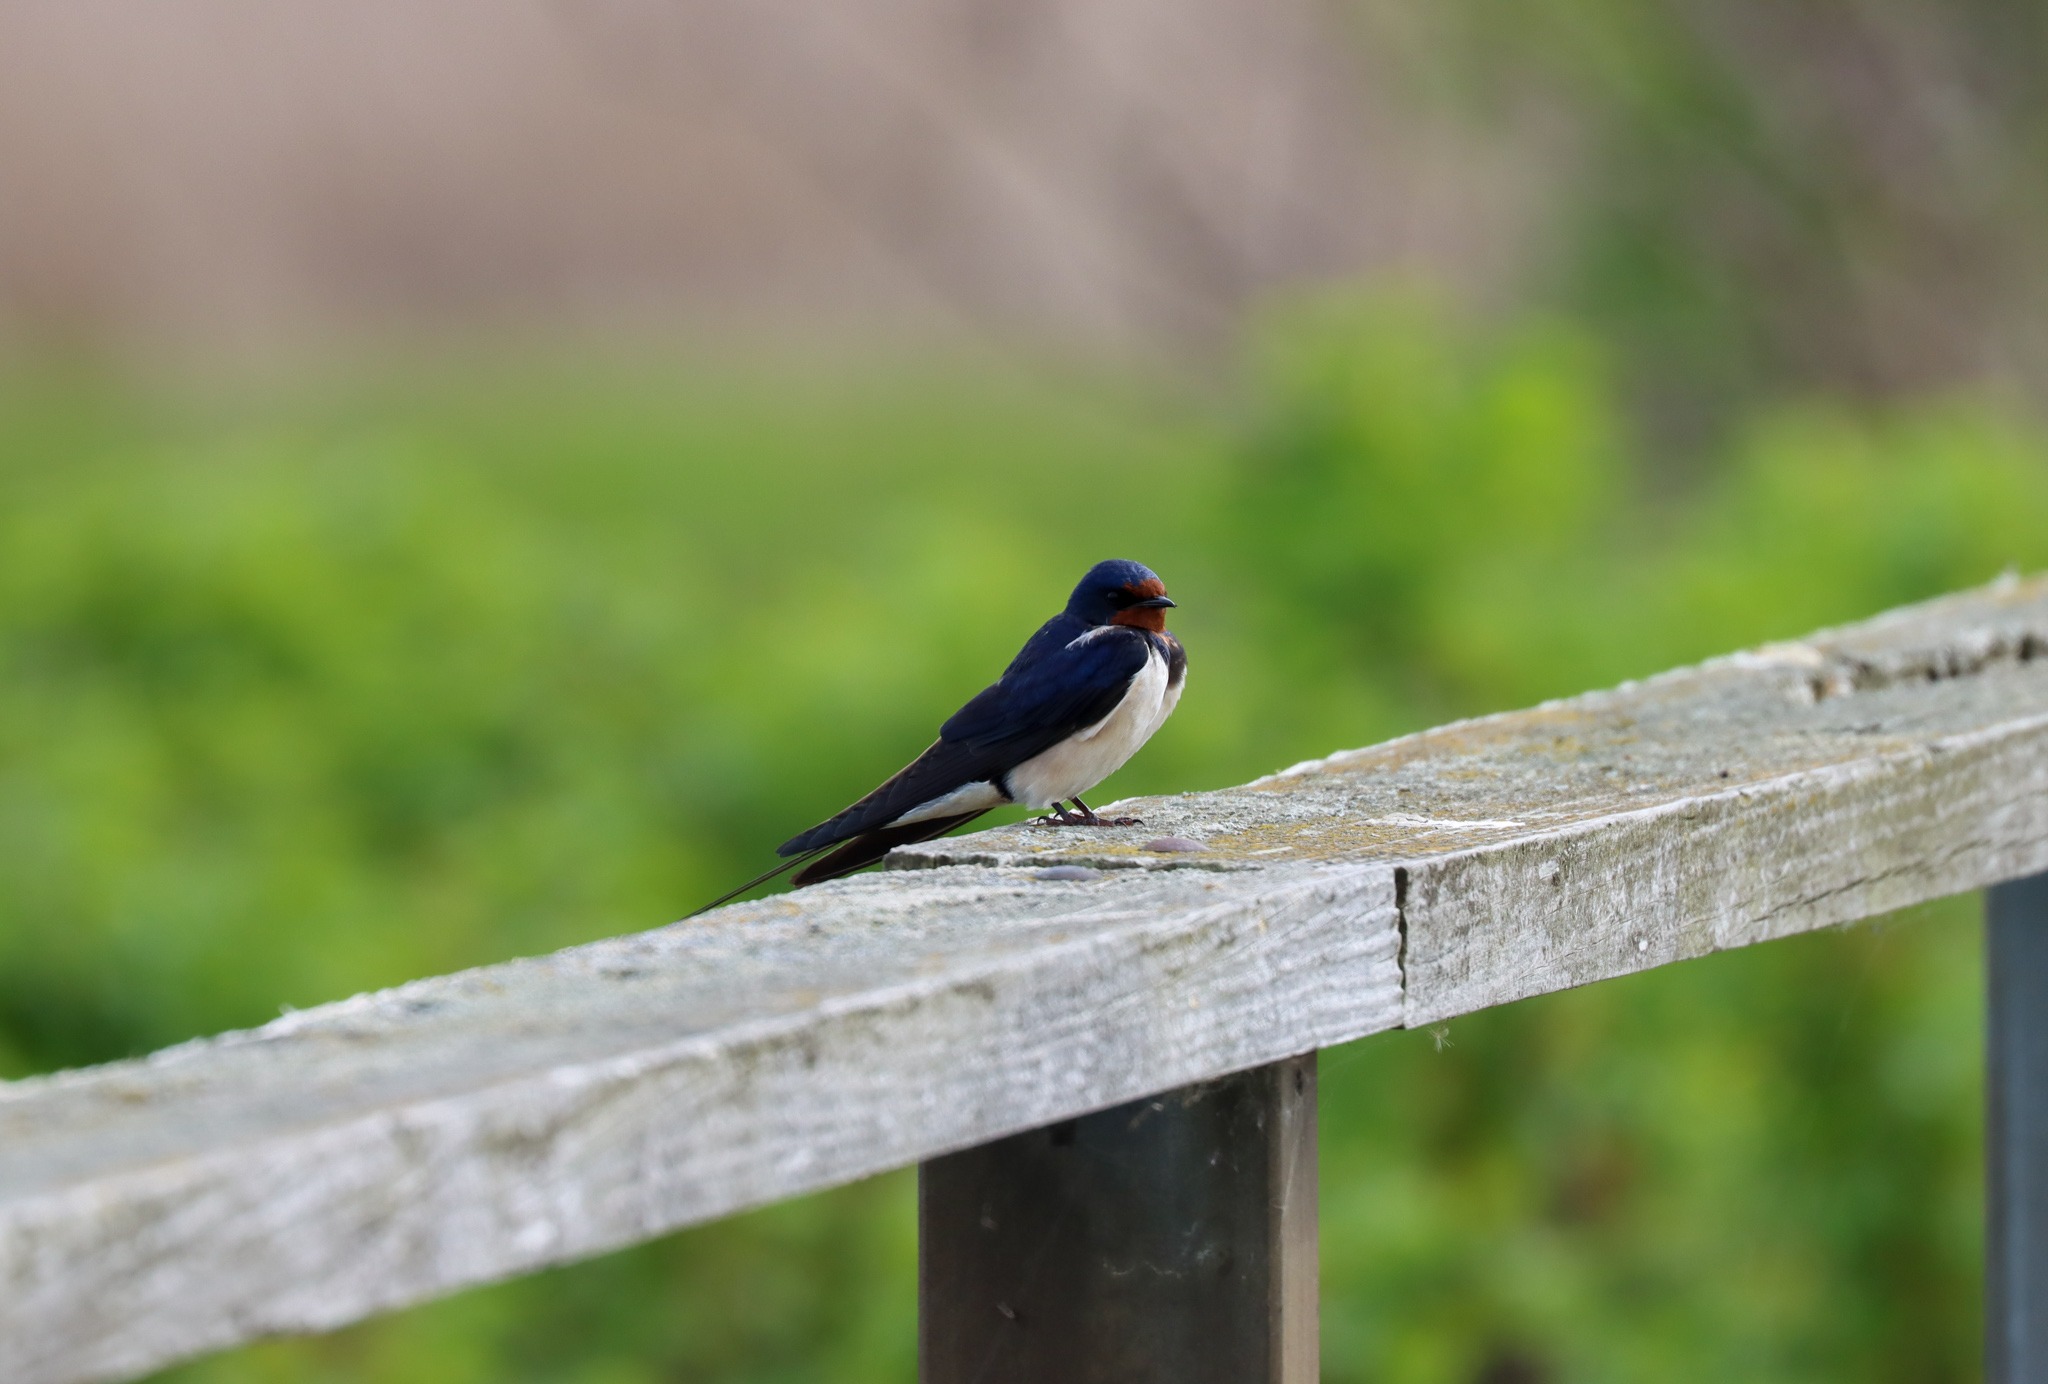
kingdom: Animalia
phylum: Chordata
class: Aves
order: Passeriformes
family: Hirundinidae
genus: Hirundo
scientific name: Hirundo rustica
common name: Landsvale
